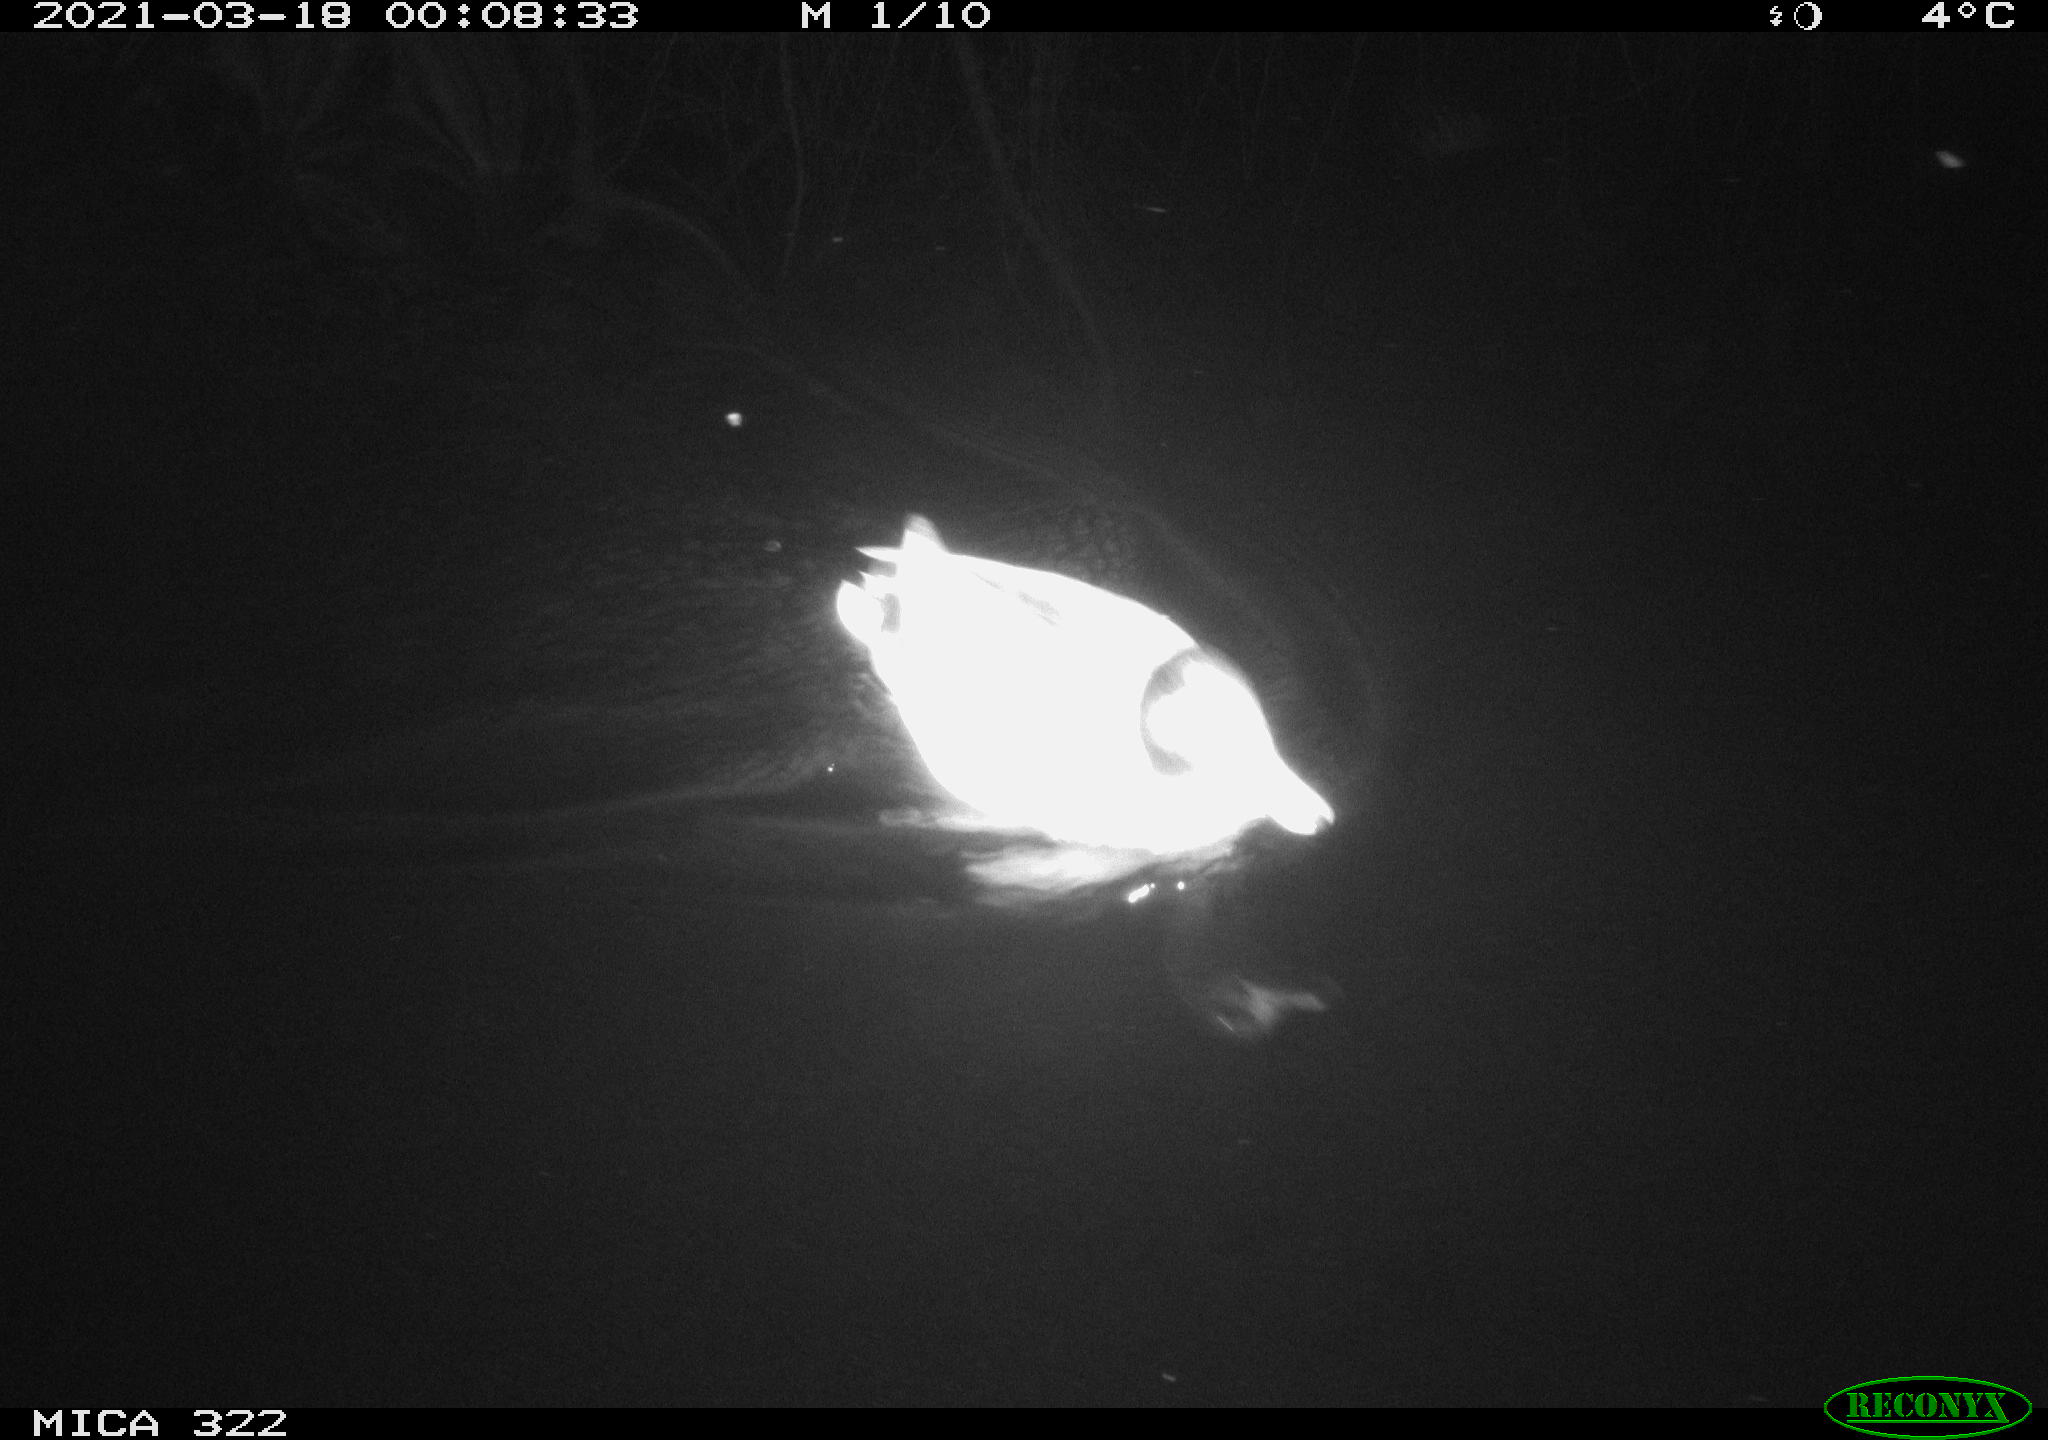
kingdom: Animalia
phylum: Chordata
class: Aves
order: Gruiformes
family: Rallidae
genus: Gallinula
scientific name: Gallinula chloropus
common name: Common moorhen
